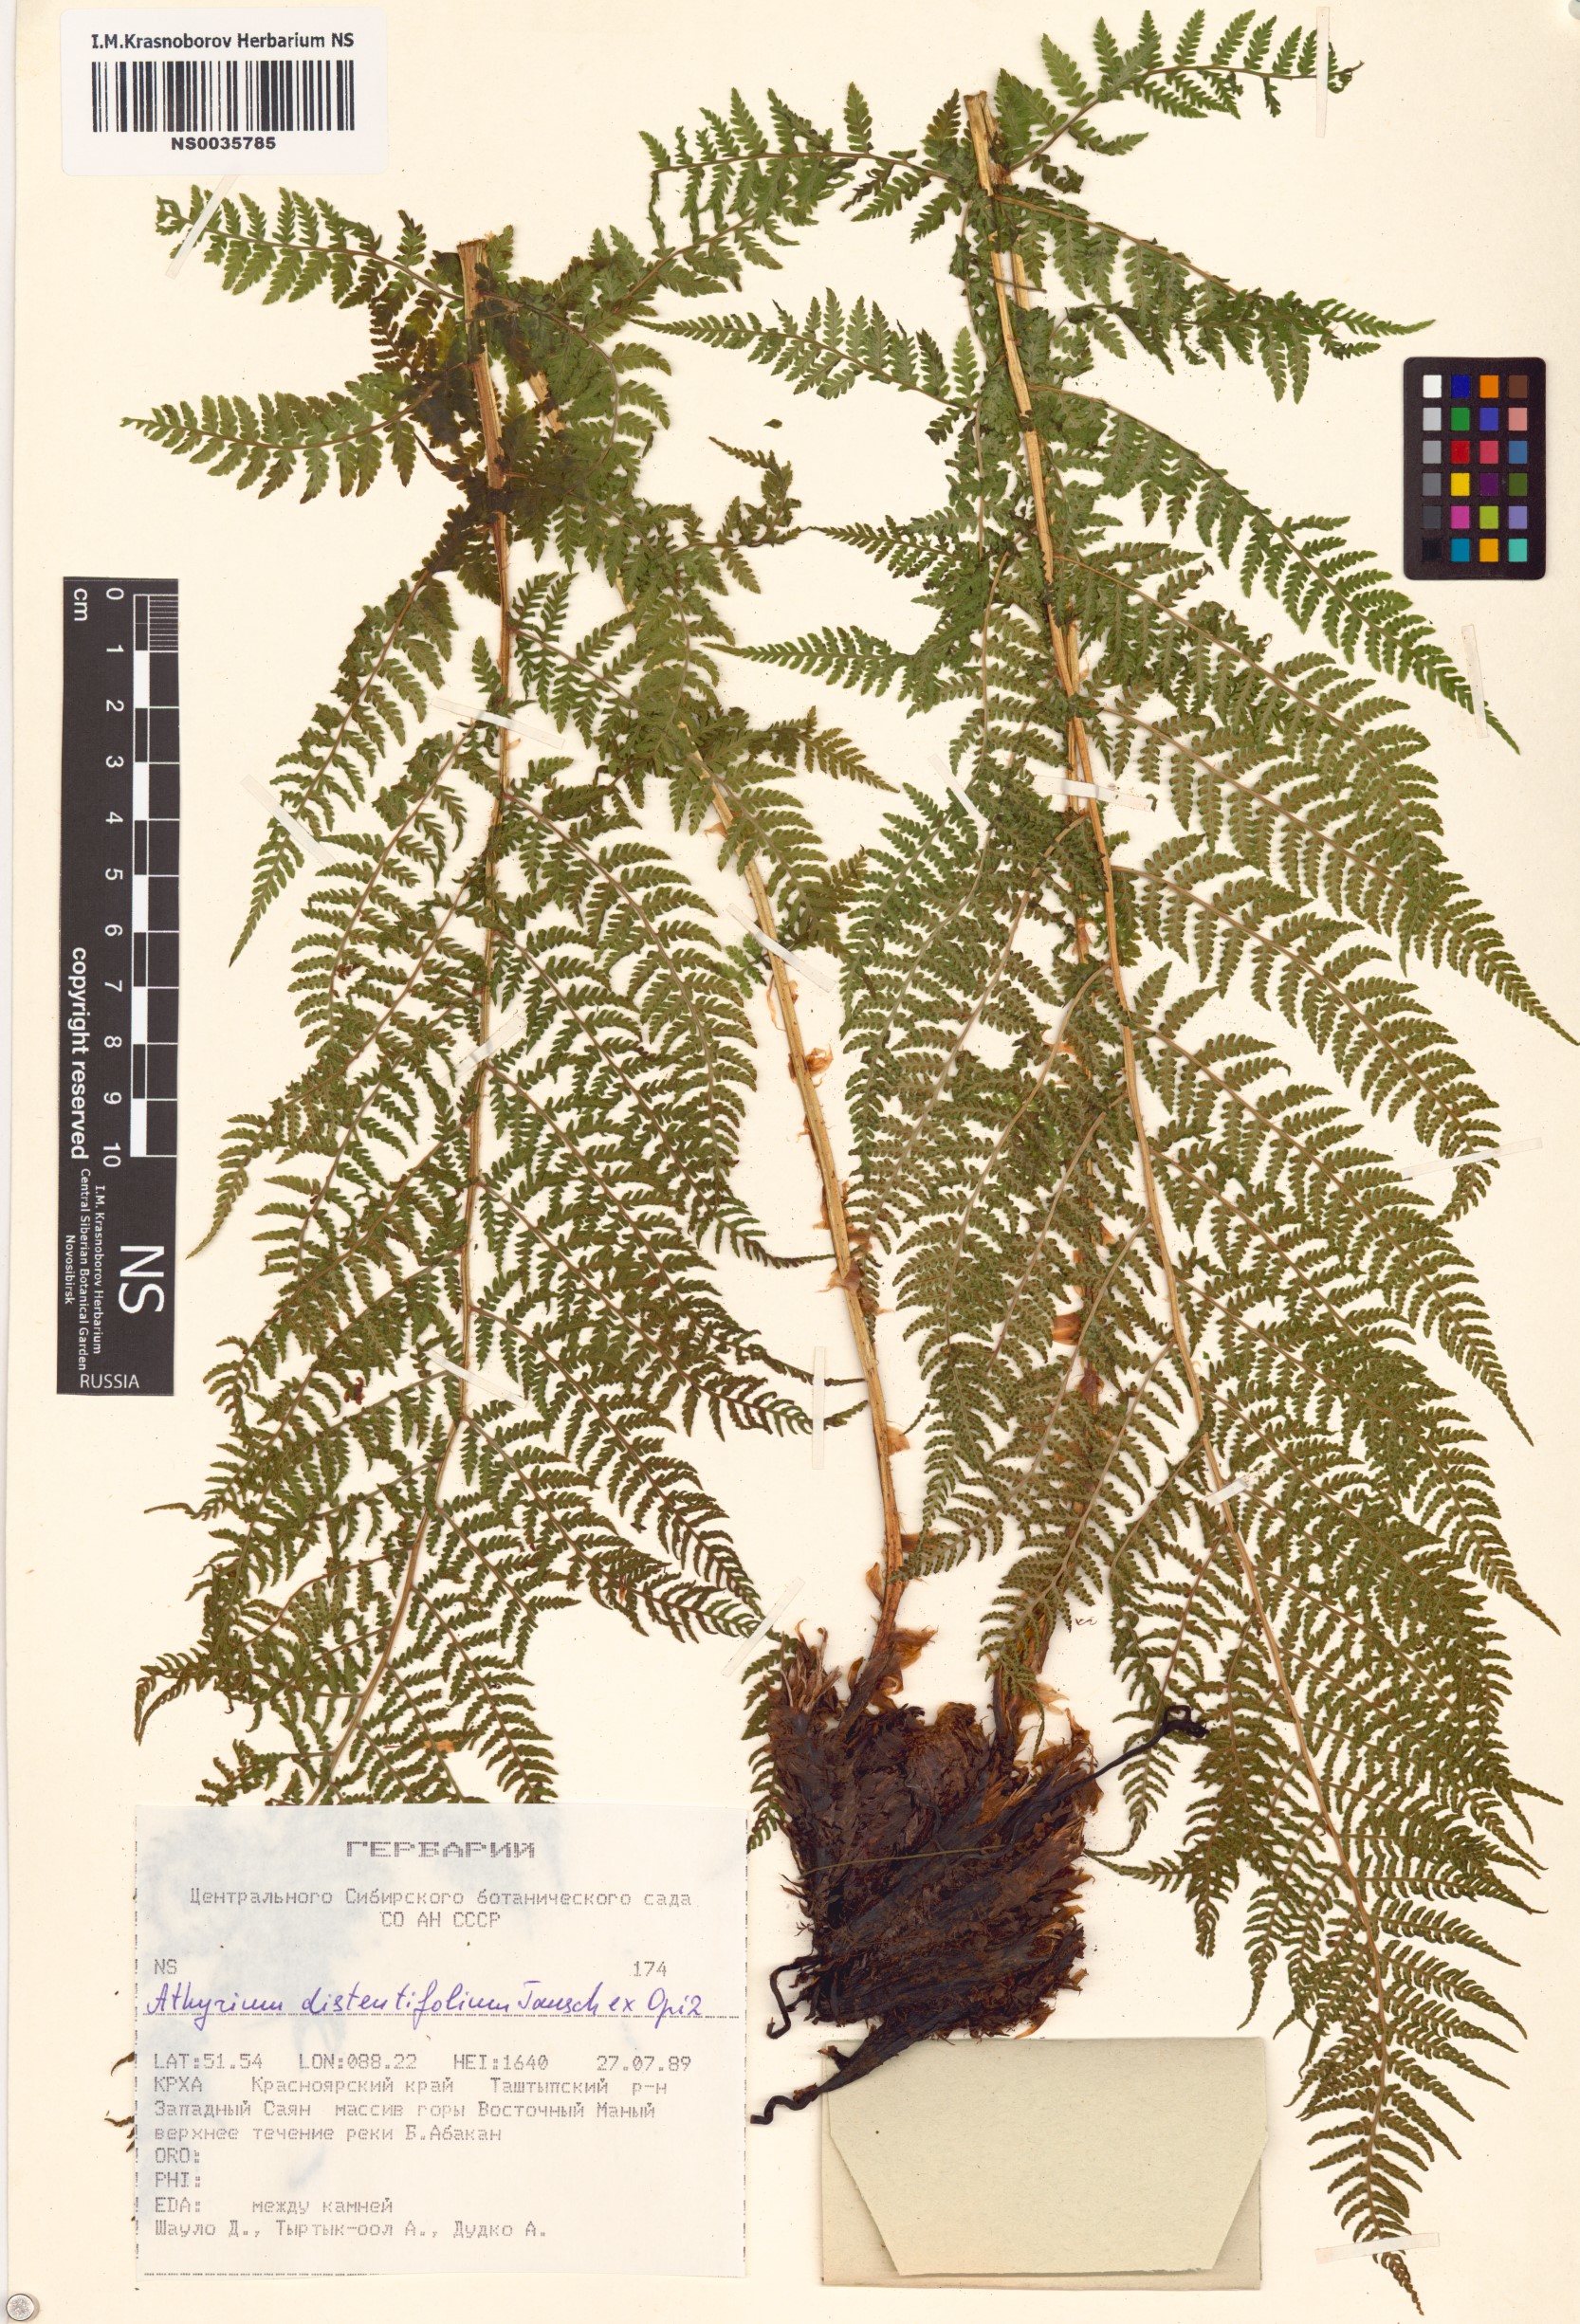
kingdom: Plantae
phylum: Tracheophyta
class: Polypodiopsida
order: Polypodiales
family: Athyriaceae
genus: Pseudathyrium
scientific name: Pseudathyrium alpestre
